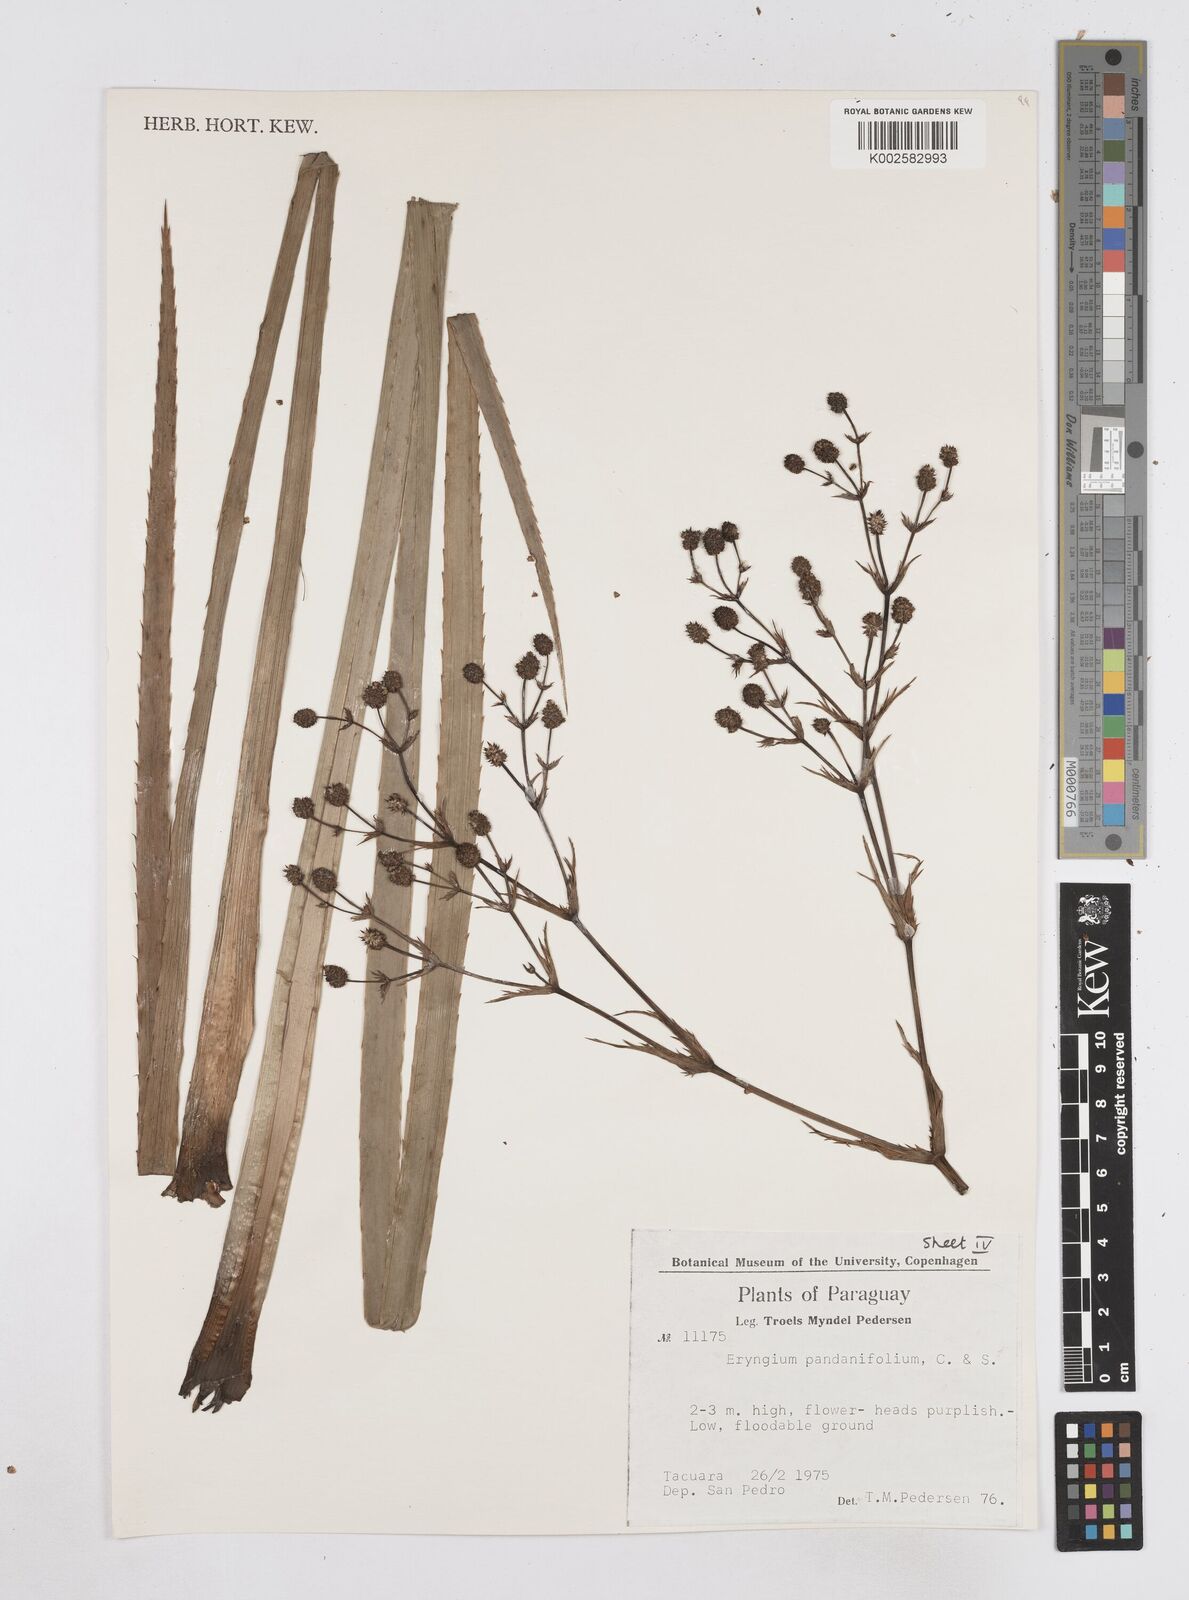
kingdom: Plantae
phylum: Tracheophyta
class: Magnoliopsida
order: Apiales
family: Apiaceae
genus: Eryngium
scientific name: Eryngium pandanifolium
